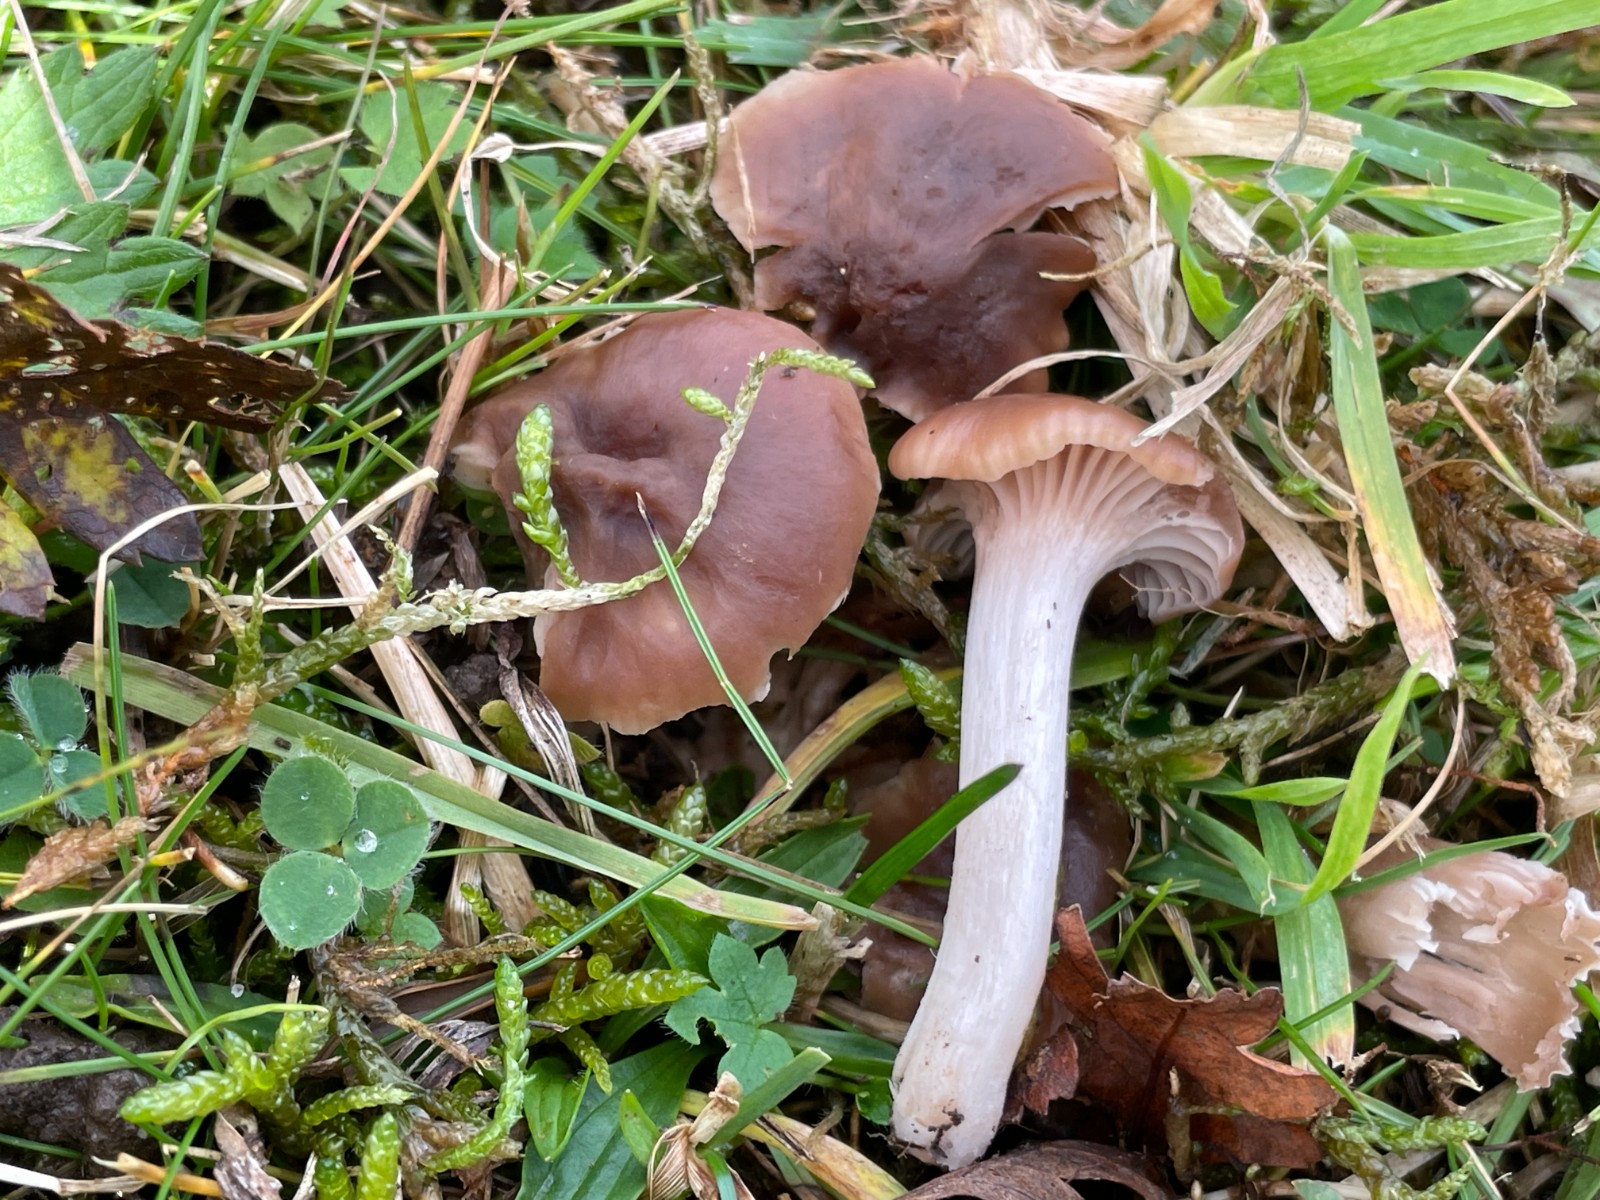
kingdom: Fungi
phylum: Basidiomycota
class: Agaricomycetes
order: Agaricales
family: Hygrophoraceae
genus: Cuphophyllus
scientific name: Cuphophyllus colemannianus
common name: rødbrun vokshat
